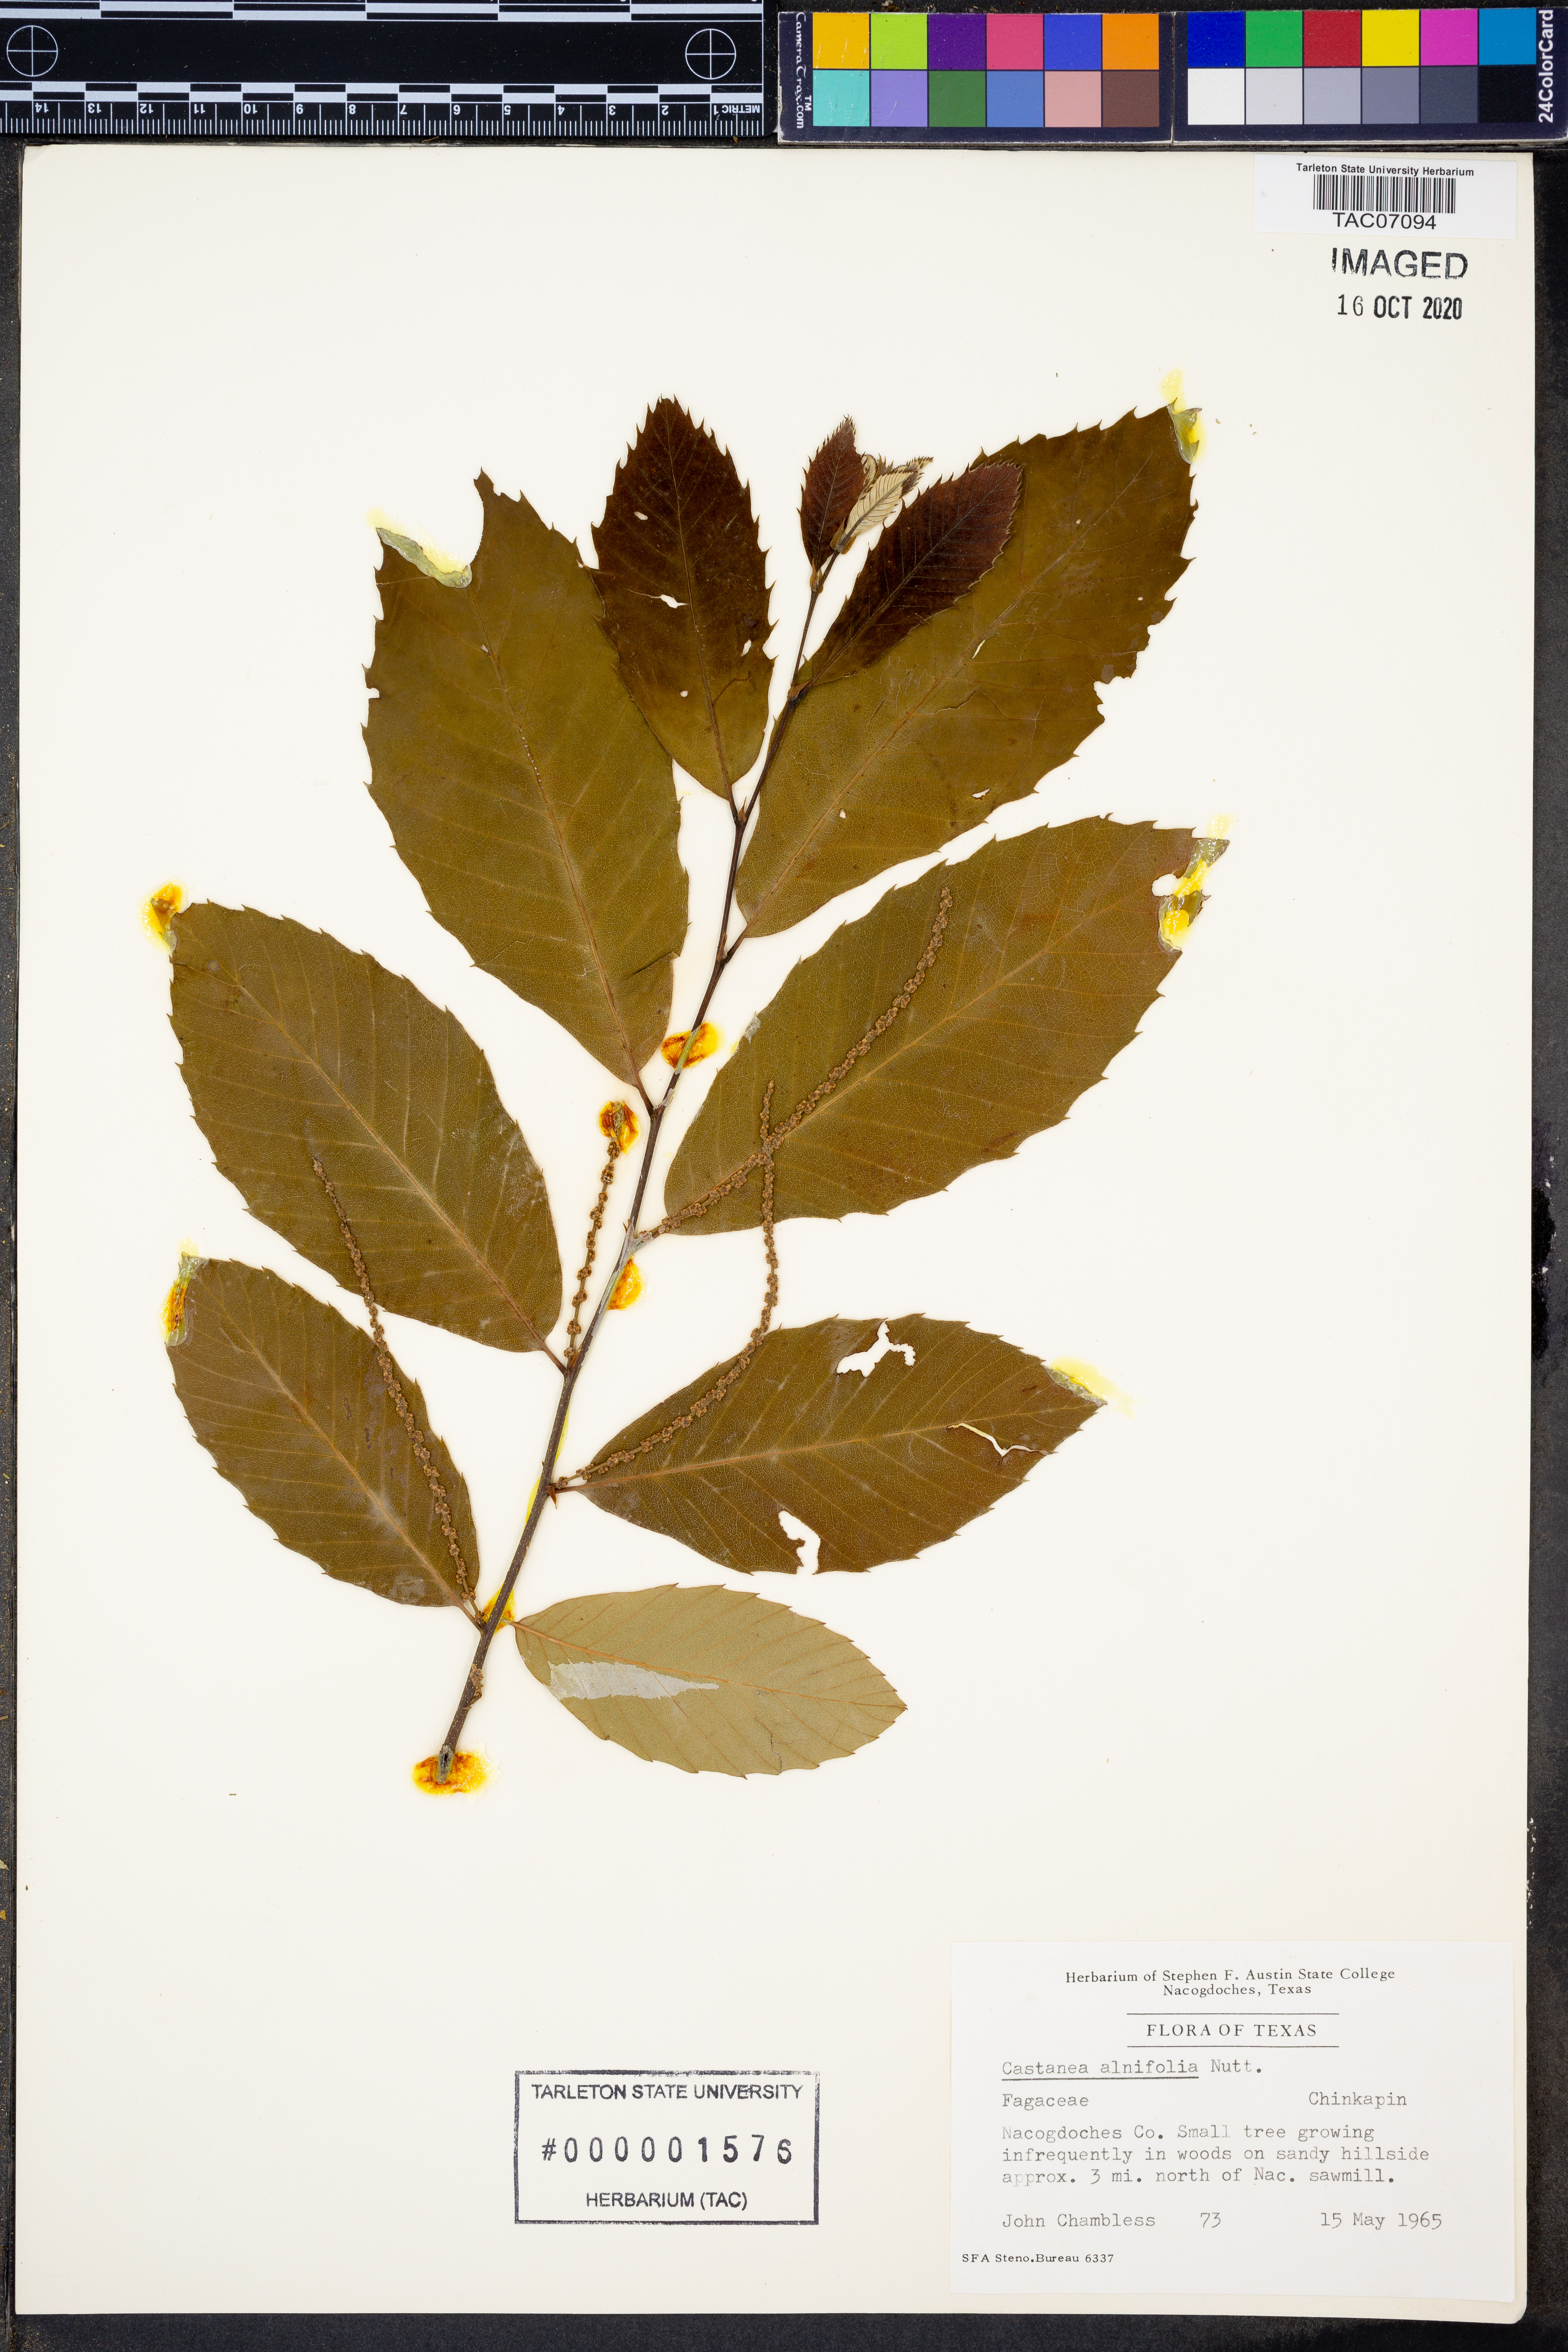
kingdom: Plantae
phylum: Tracheophyta
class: Magnoliopsida
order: Fagales
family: Fagaceae
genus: Castanea
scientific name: Castanea pumila
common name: Chinkapin
